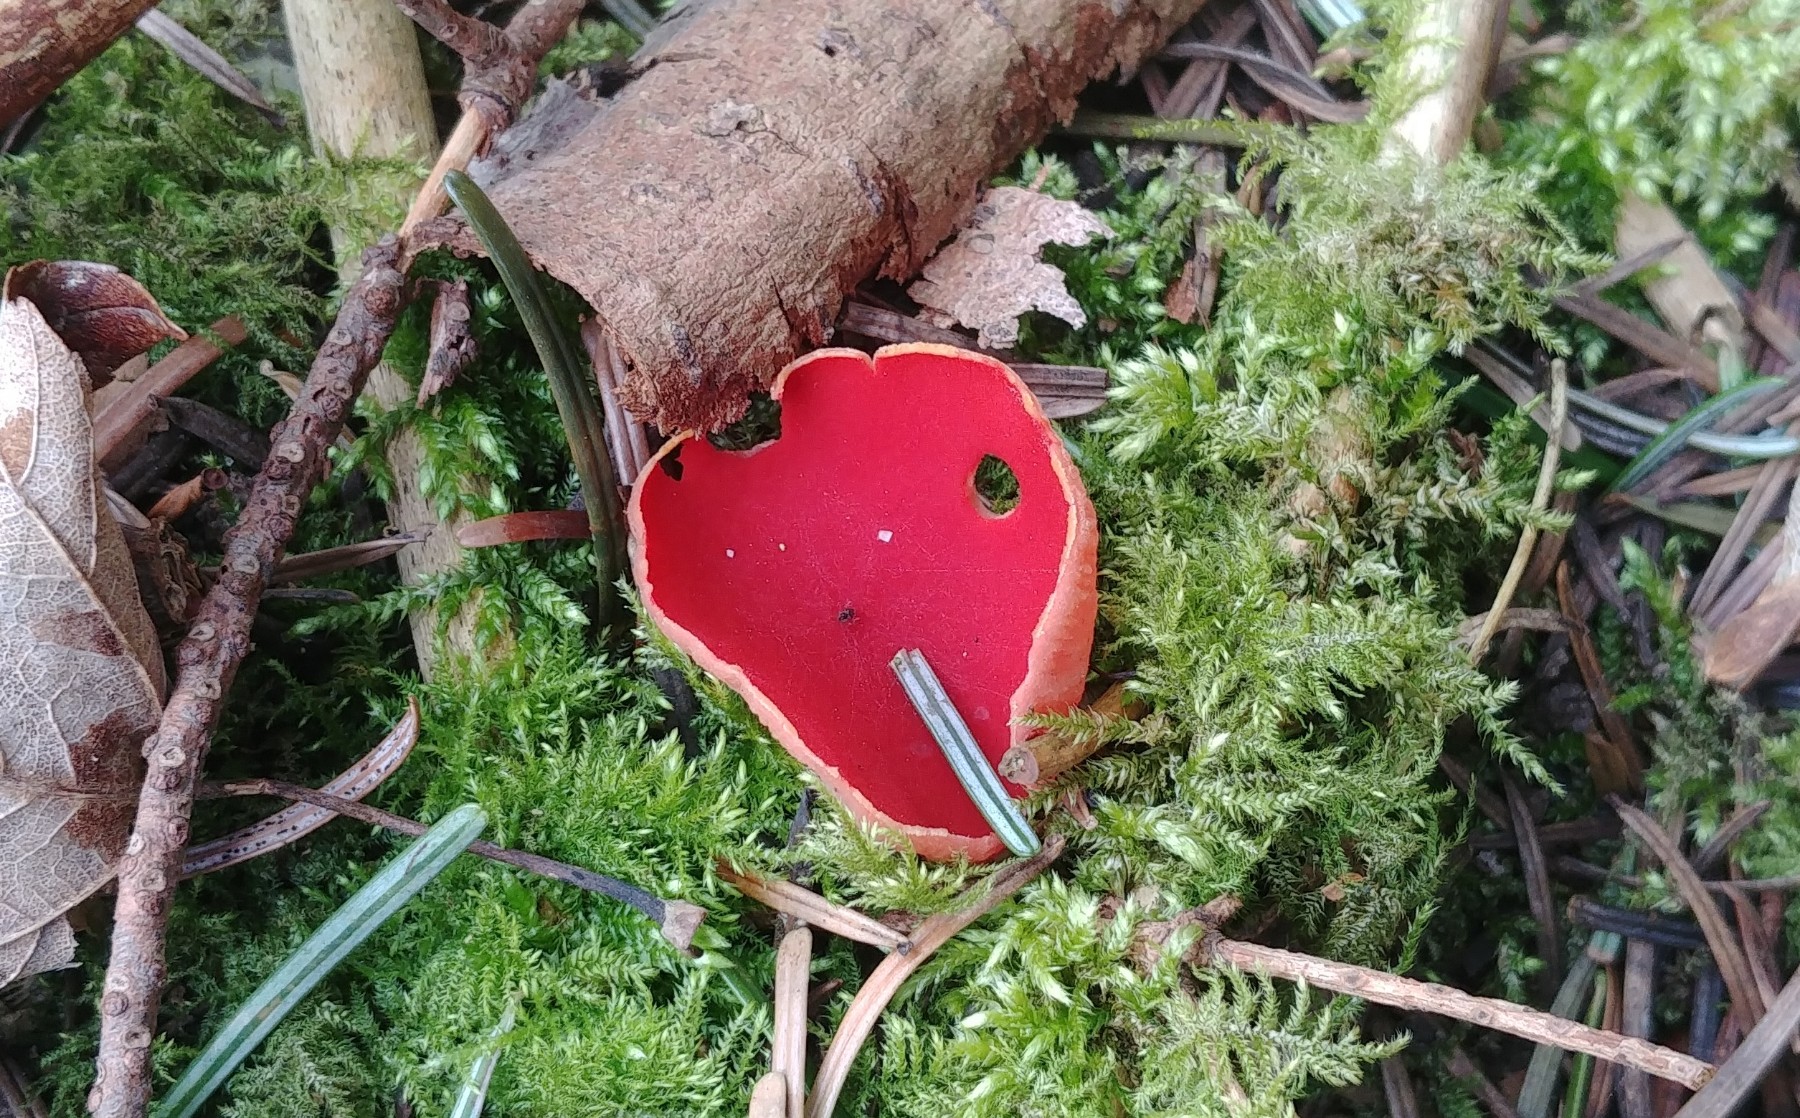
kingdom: Fungi
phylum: Ascomycota
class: Pezizomycetes
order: Pezizales
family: Sarcoscyphaceae
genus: Sarcoscypha
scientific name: Sarcoscypha austriaca
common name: krølhåret pragtbæger
